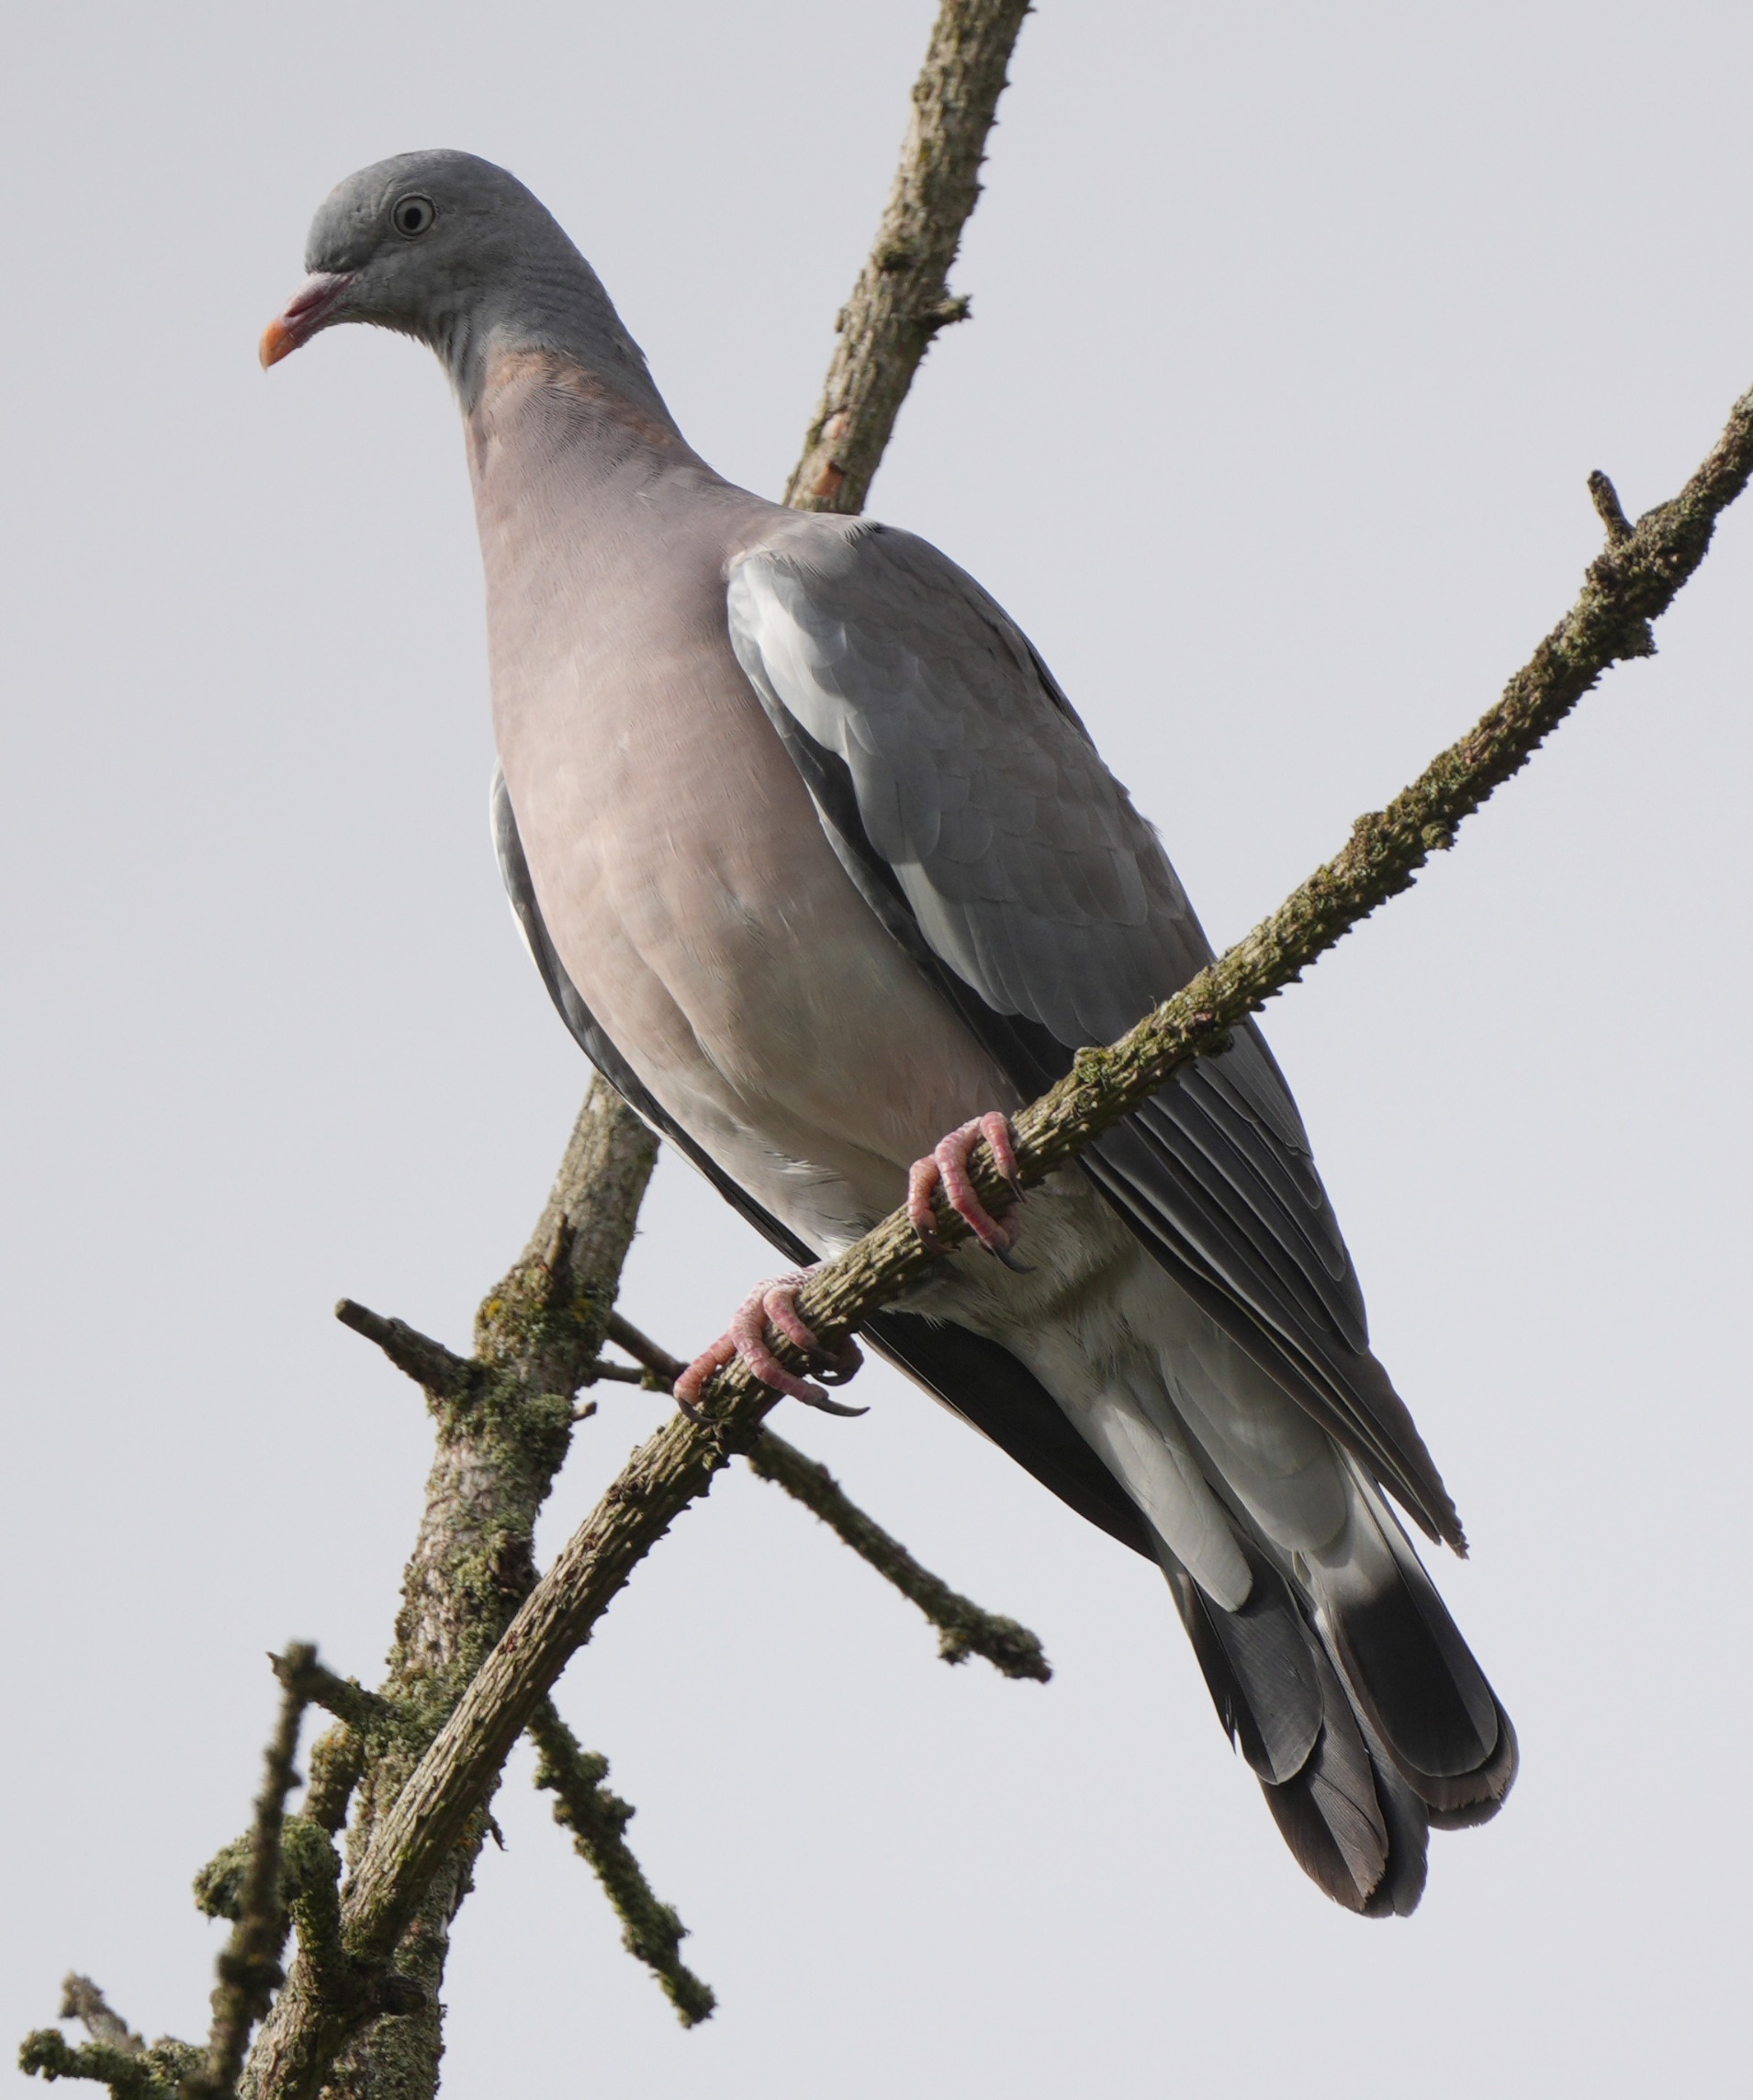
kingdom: Animalia
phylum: Chordata
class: Aves
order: Columbiformes
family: Columbidae
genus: Columba
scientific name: Columba palumbus
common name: Ringdue
